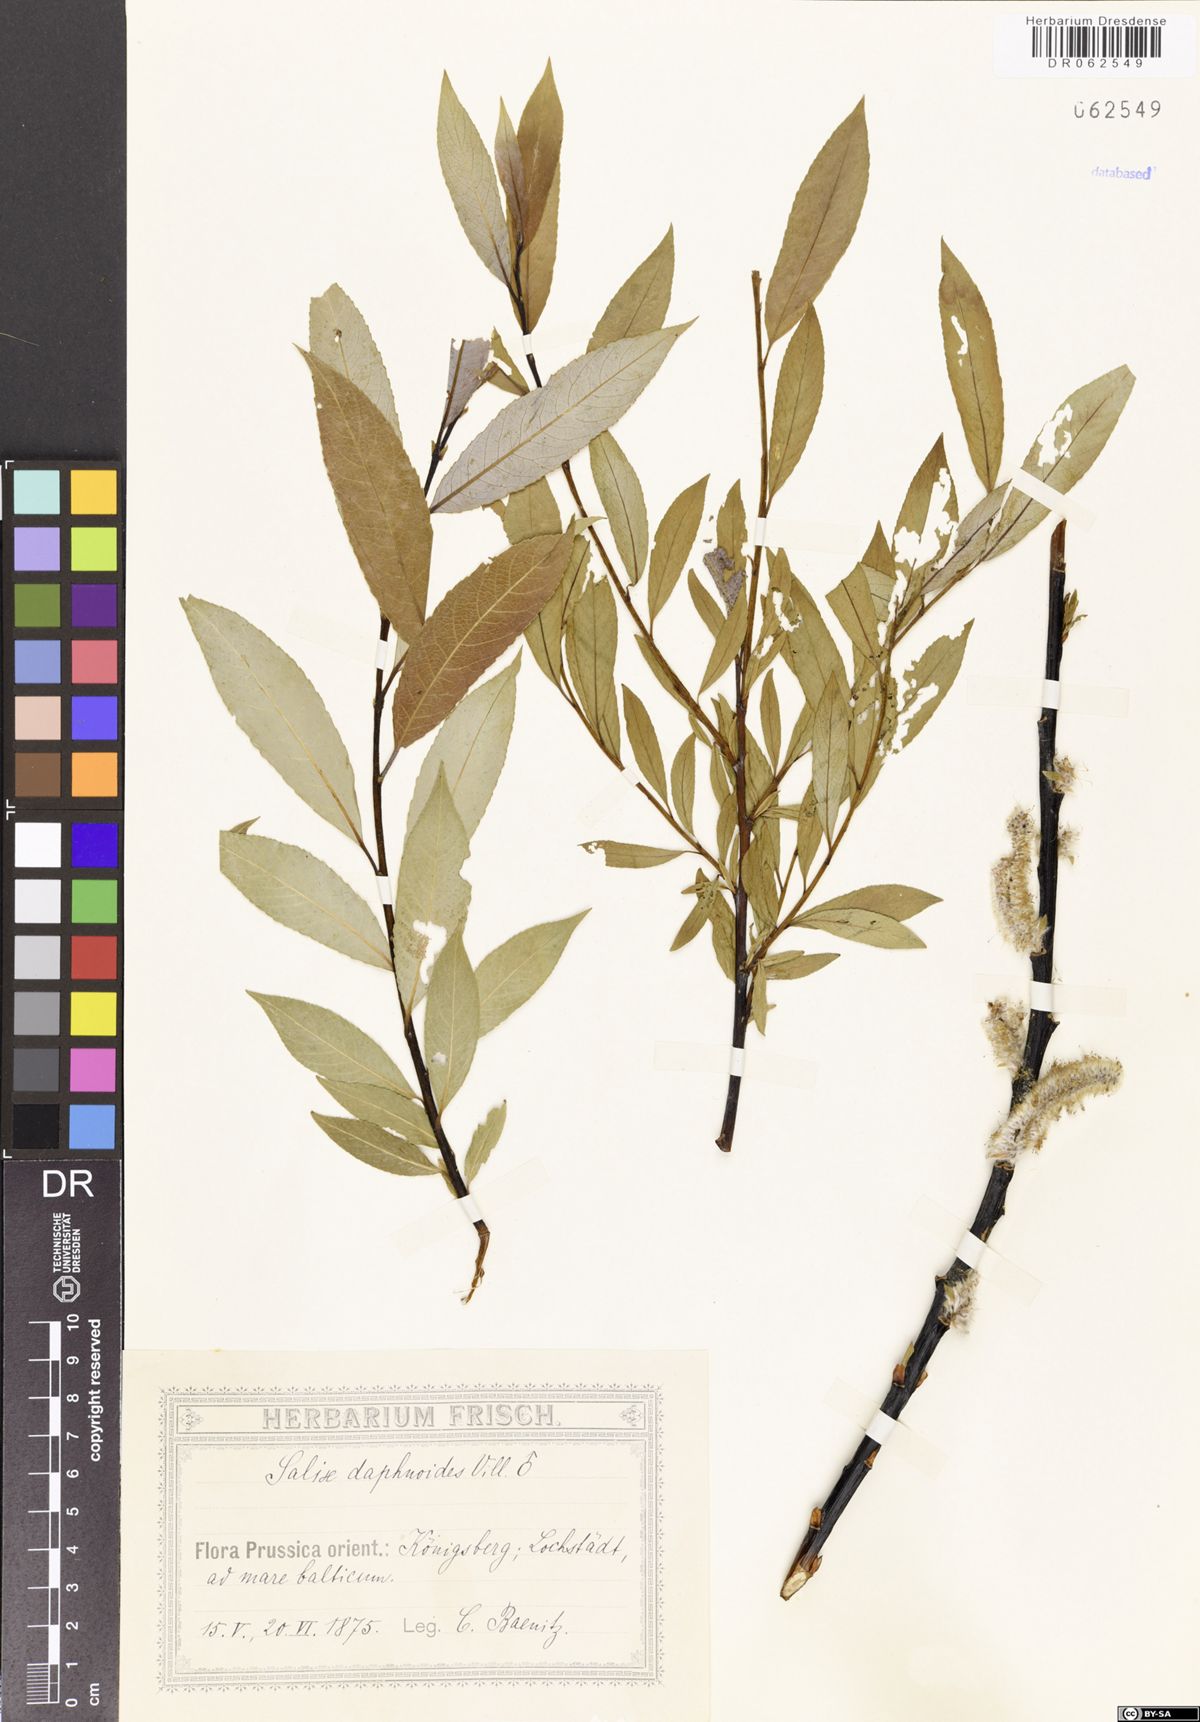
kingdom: Plantae
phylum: Tracheophyta
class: Magnoliopsida
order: Malpighiales
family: Salicaceae
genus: Salix
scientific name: Salix daphnoides
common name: European violet-willow
